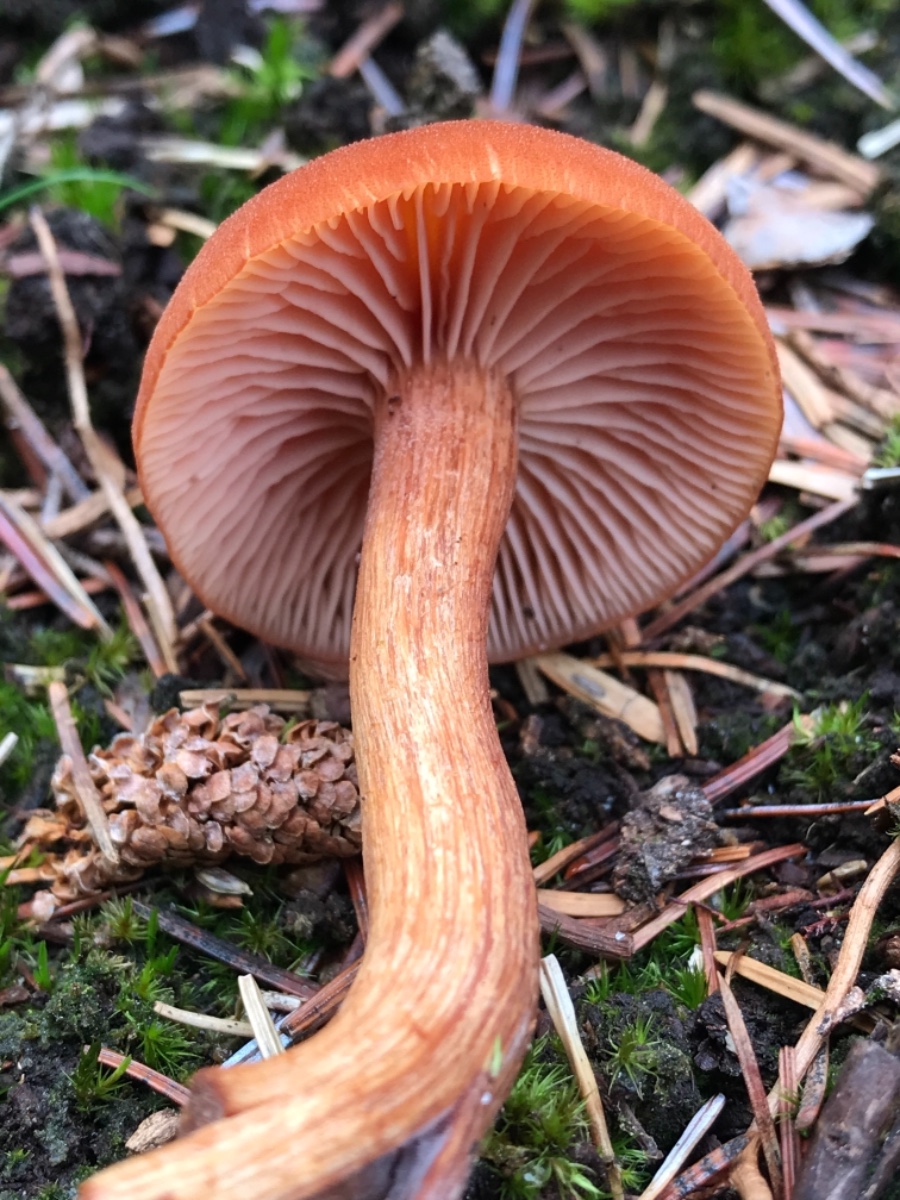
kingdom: Fungi
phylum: Basidiomycota
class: Agaricomycetes
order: Agaricales
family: Hydnangiaceae
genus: Laccaria
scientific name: Laccaria proxima
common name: stor ametysthat
